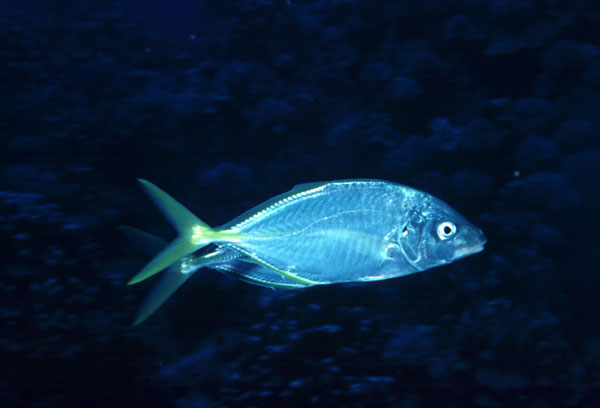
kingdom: Animalia
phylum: Chordata
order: Perciformes
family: Carangidae
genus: Pseudocaranx
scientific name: Pseudocaranx dentex
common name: White trevally
